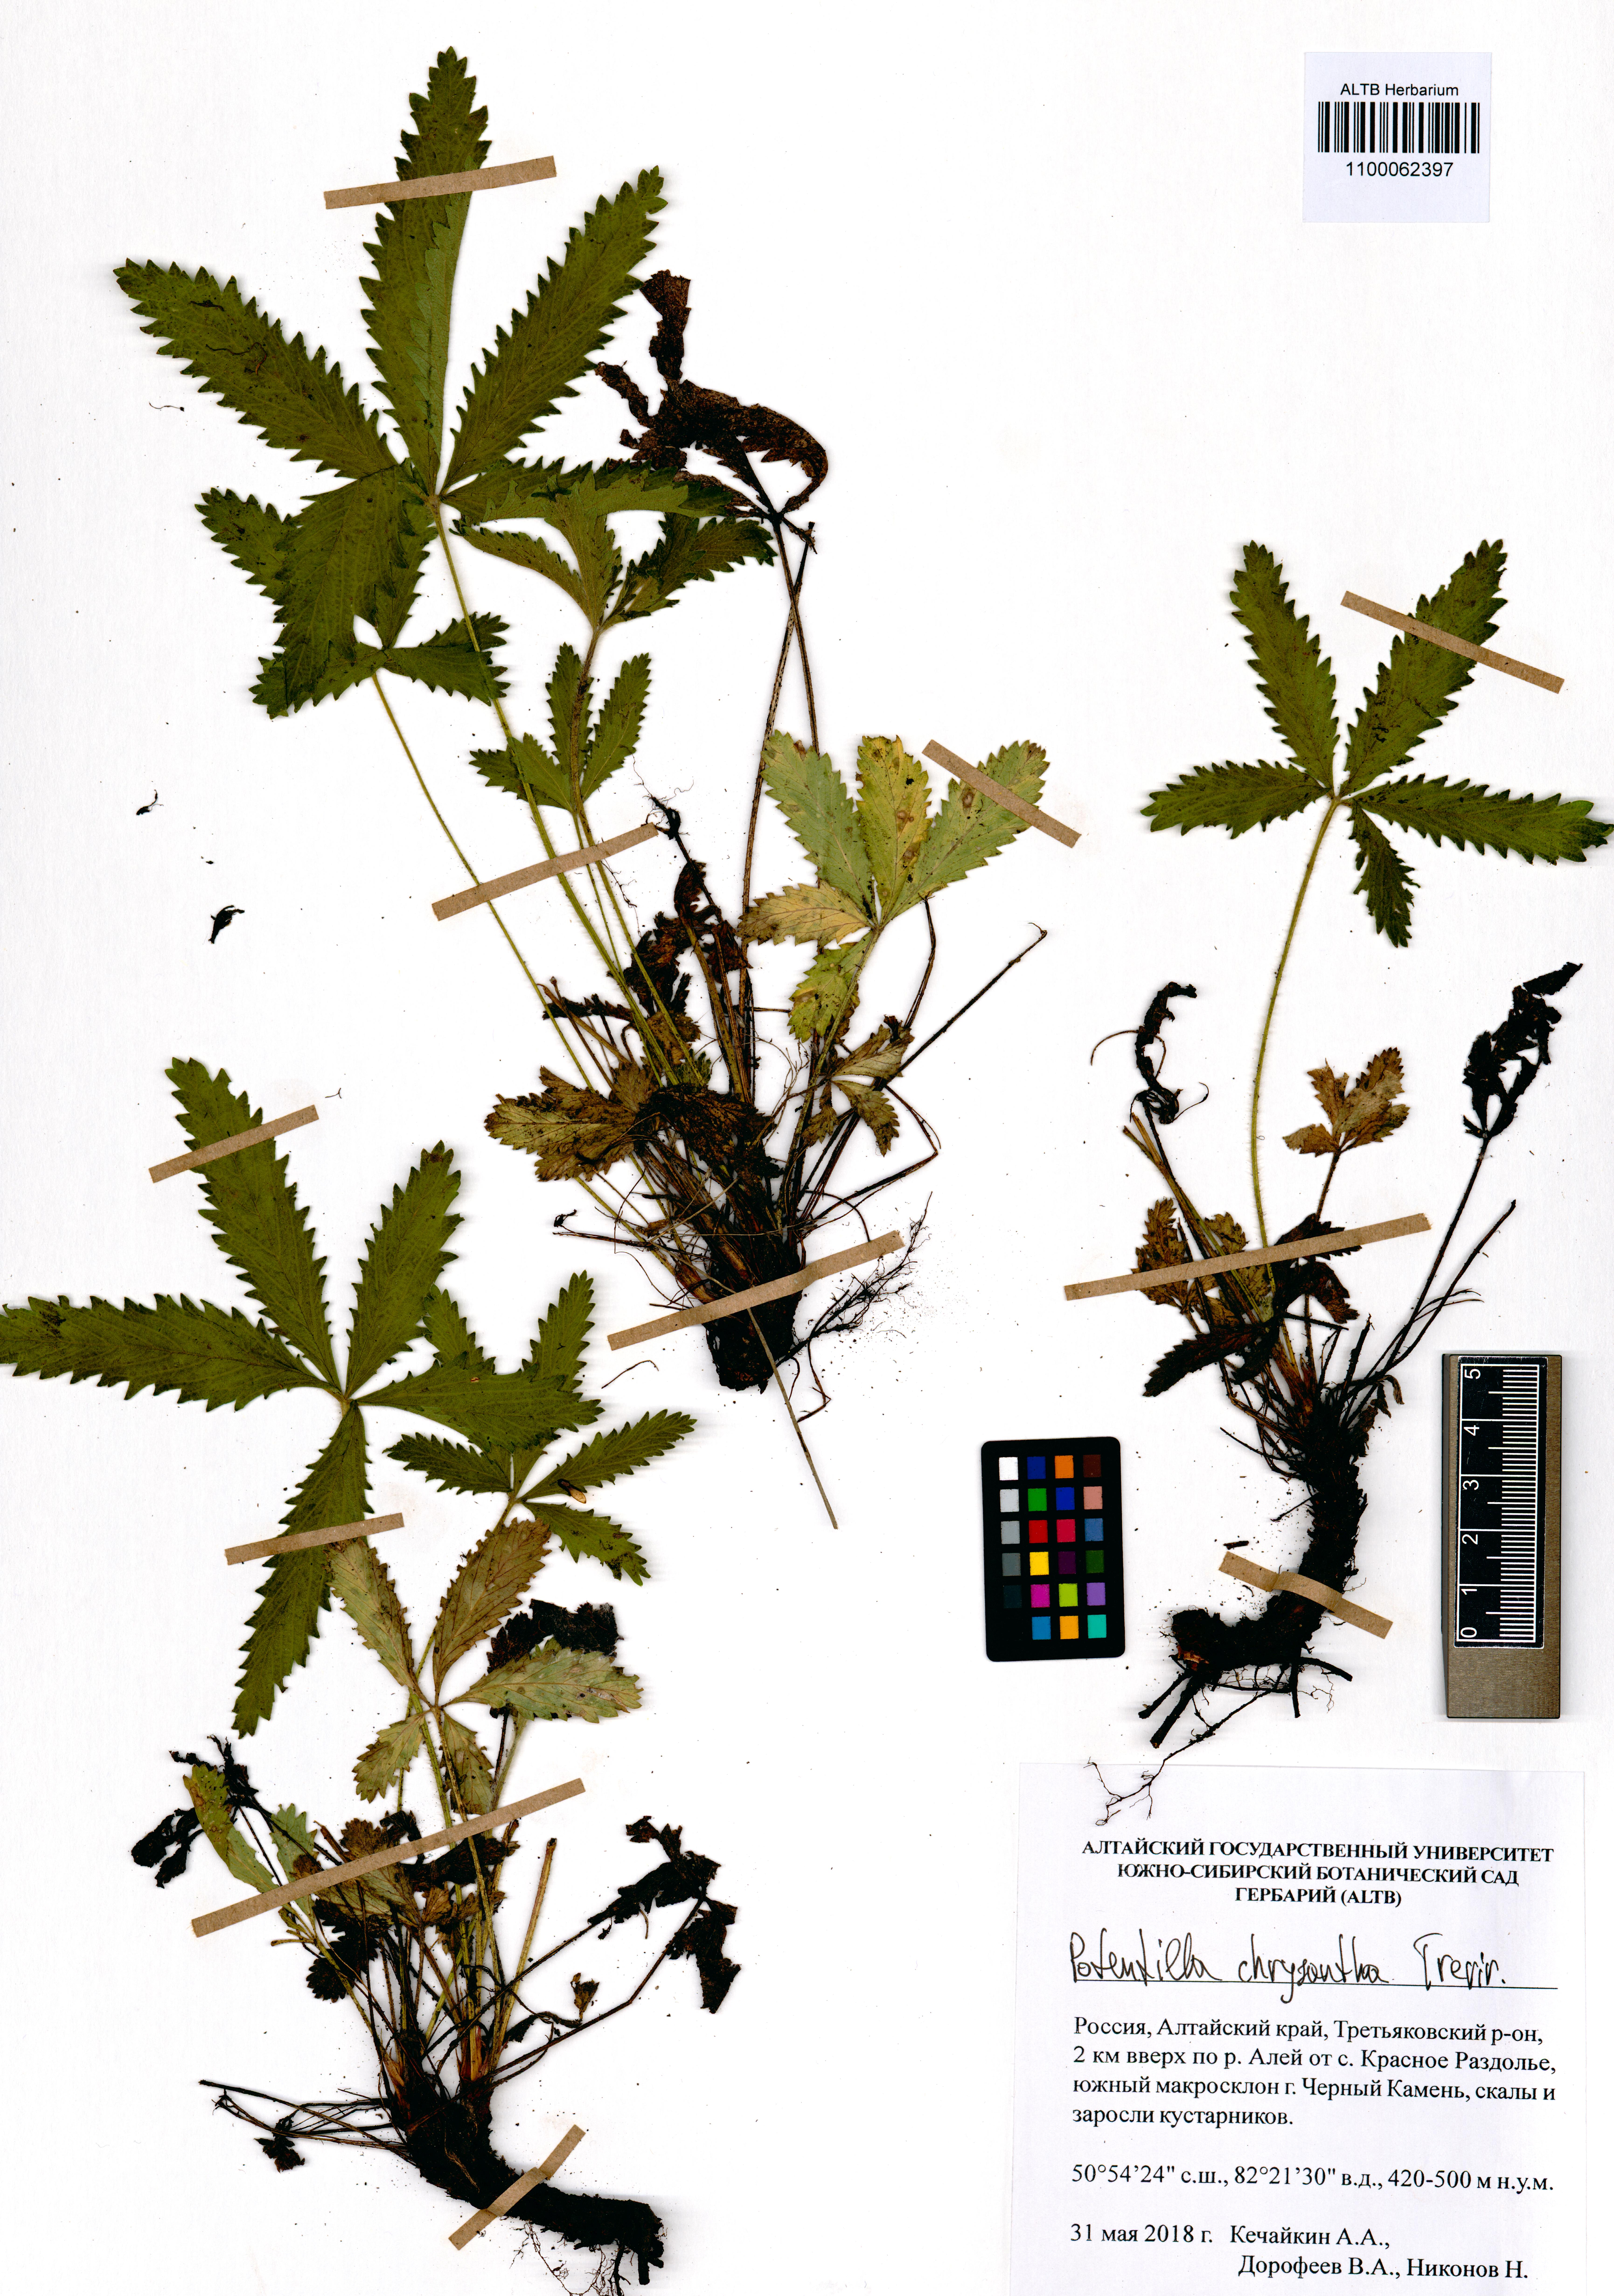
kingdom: Plantae
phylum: Tracheophyta
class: Magnoliopsida
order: Rosales
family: Rosaceae
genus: Potentilla
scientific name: Potentilla chrysantha
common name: Thuringian cinquefoil
